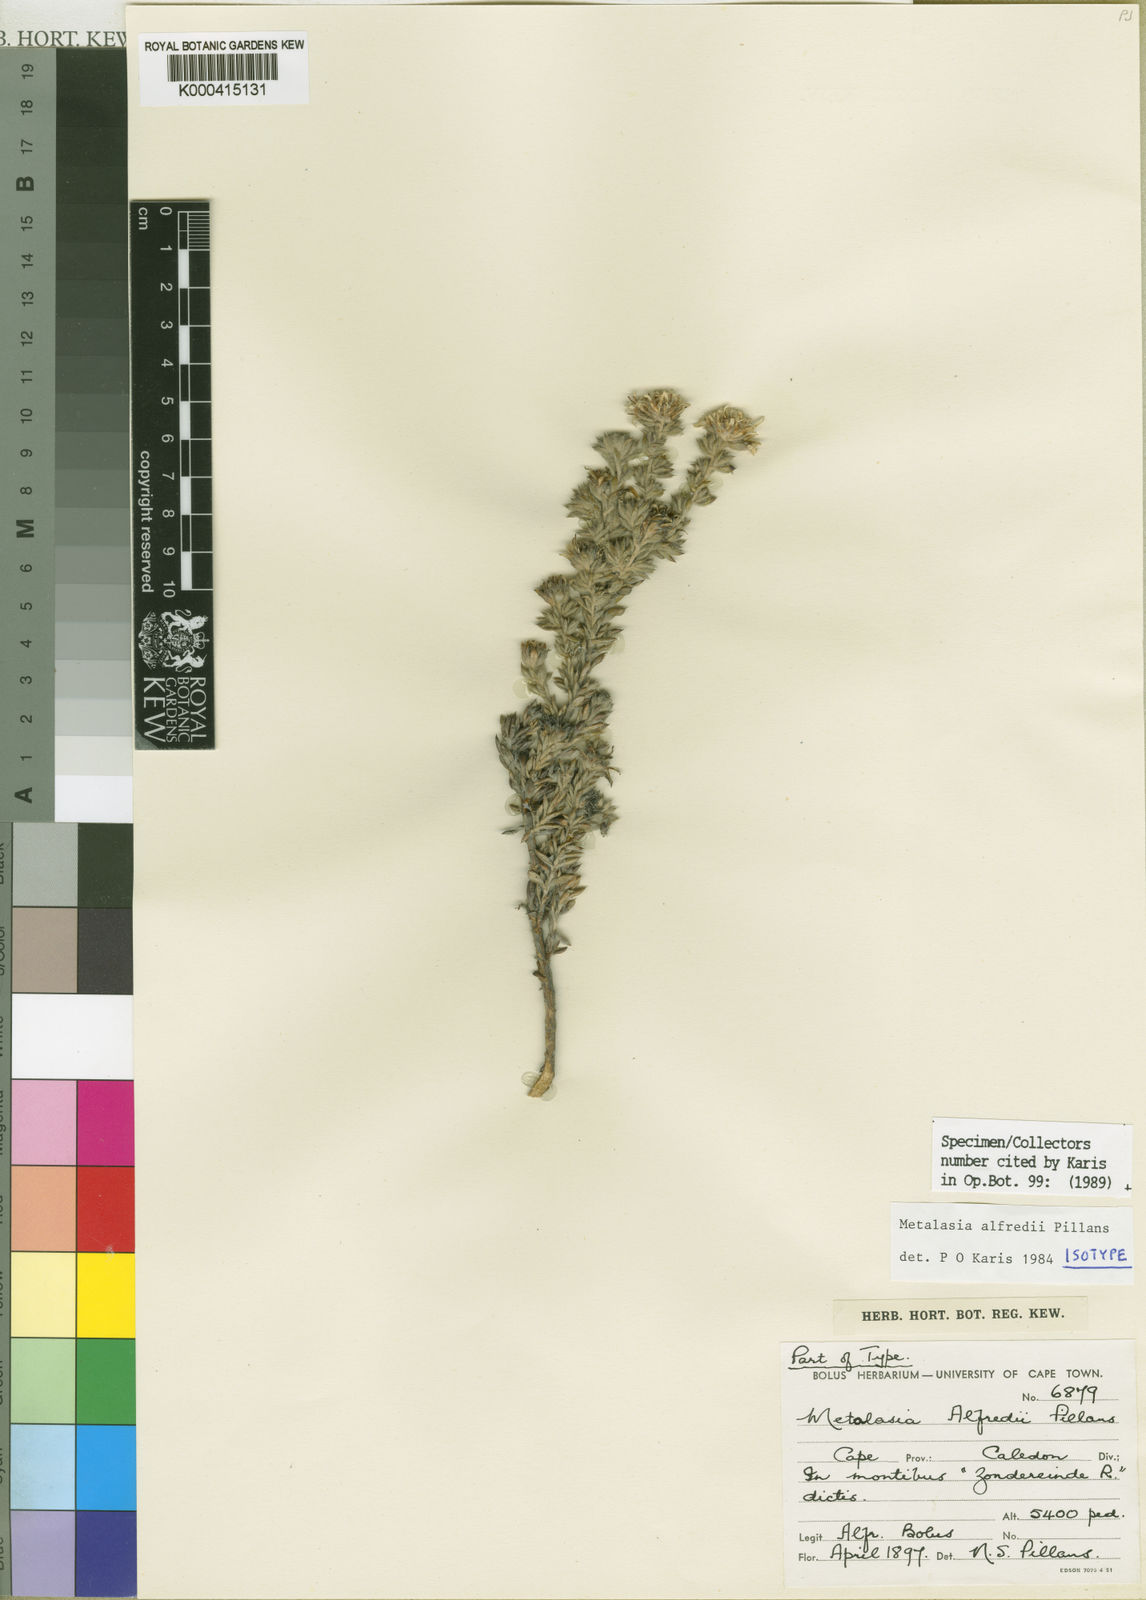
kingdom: Plantae
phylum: Tracheophyta
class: Magnoliopsida
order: Asterales
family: Asteraceae
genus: Metalasia
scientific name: Metalasia alfredii
